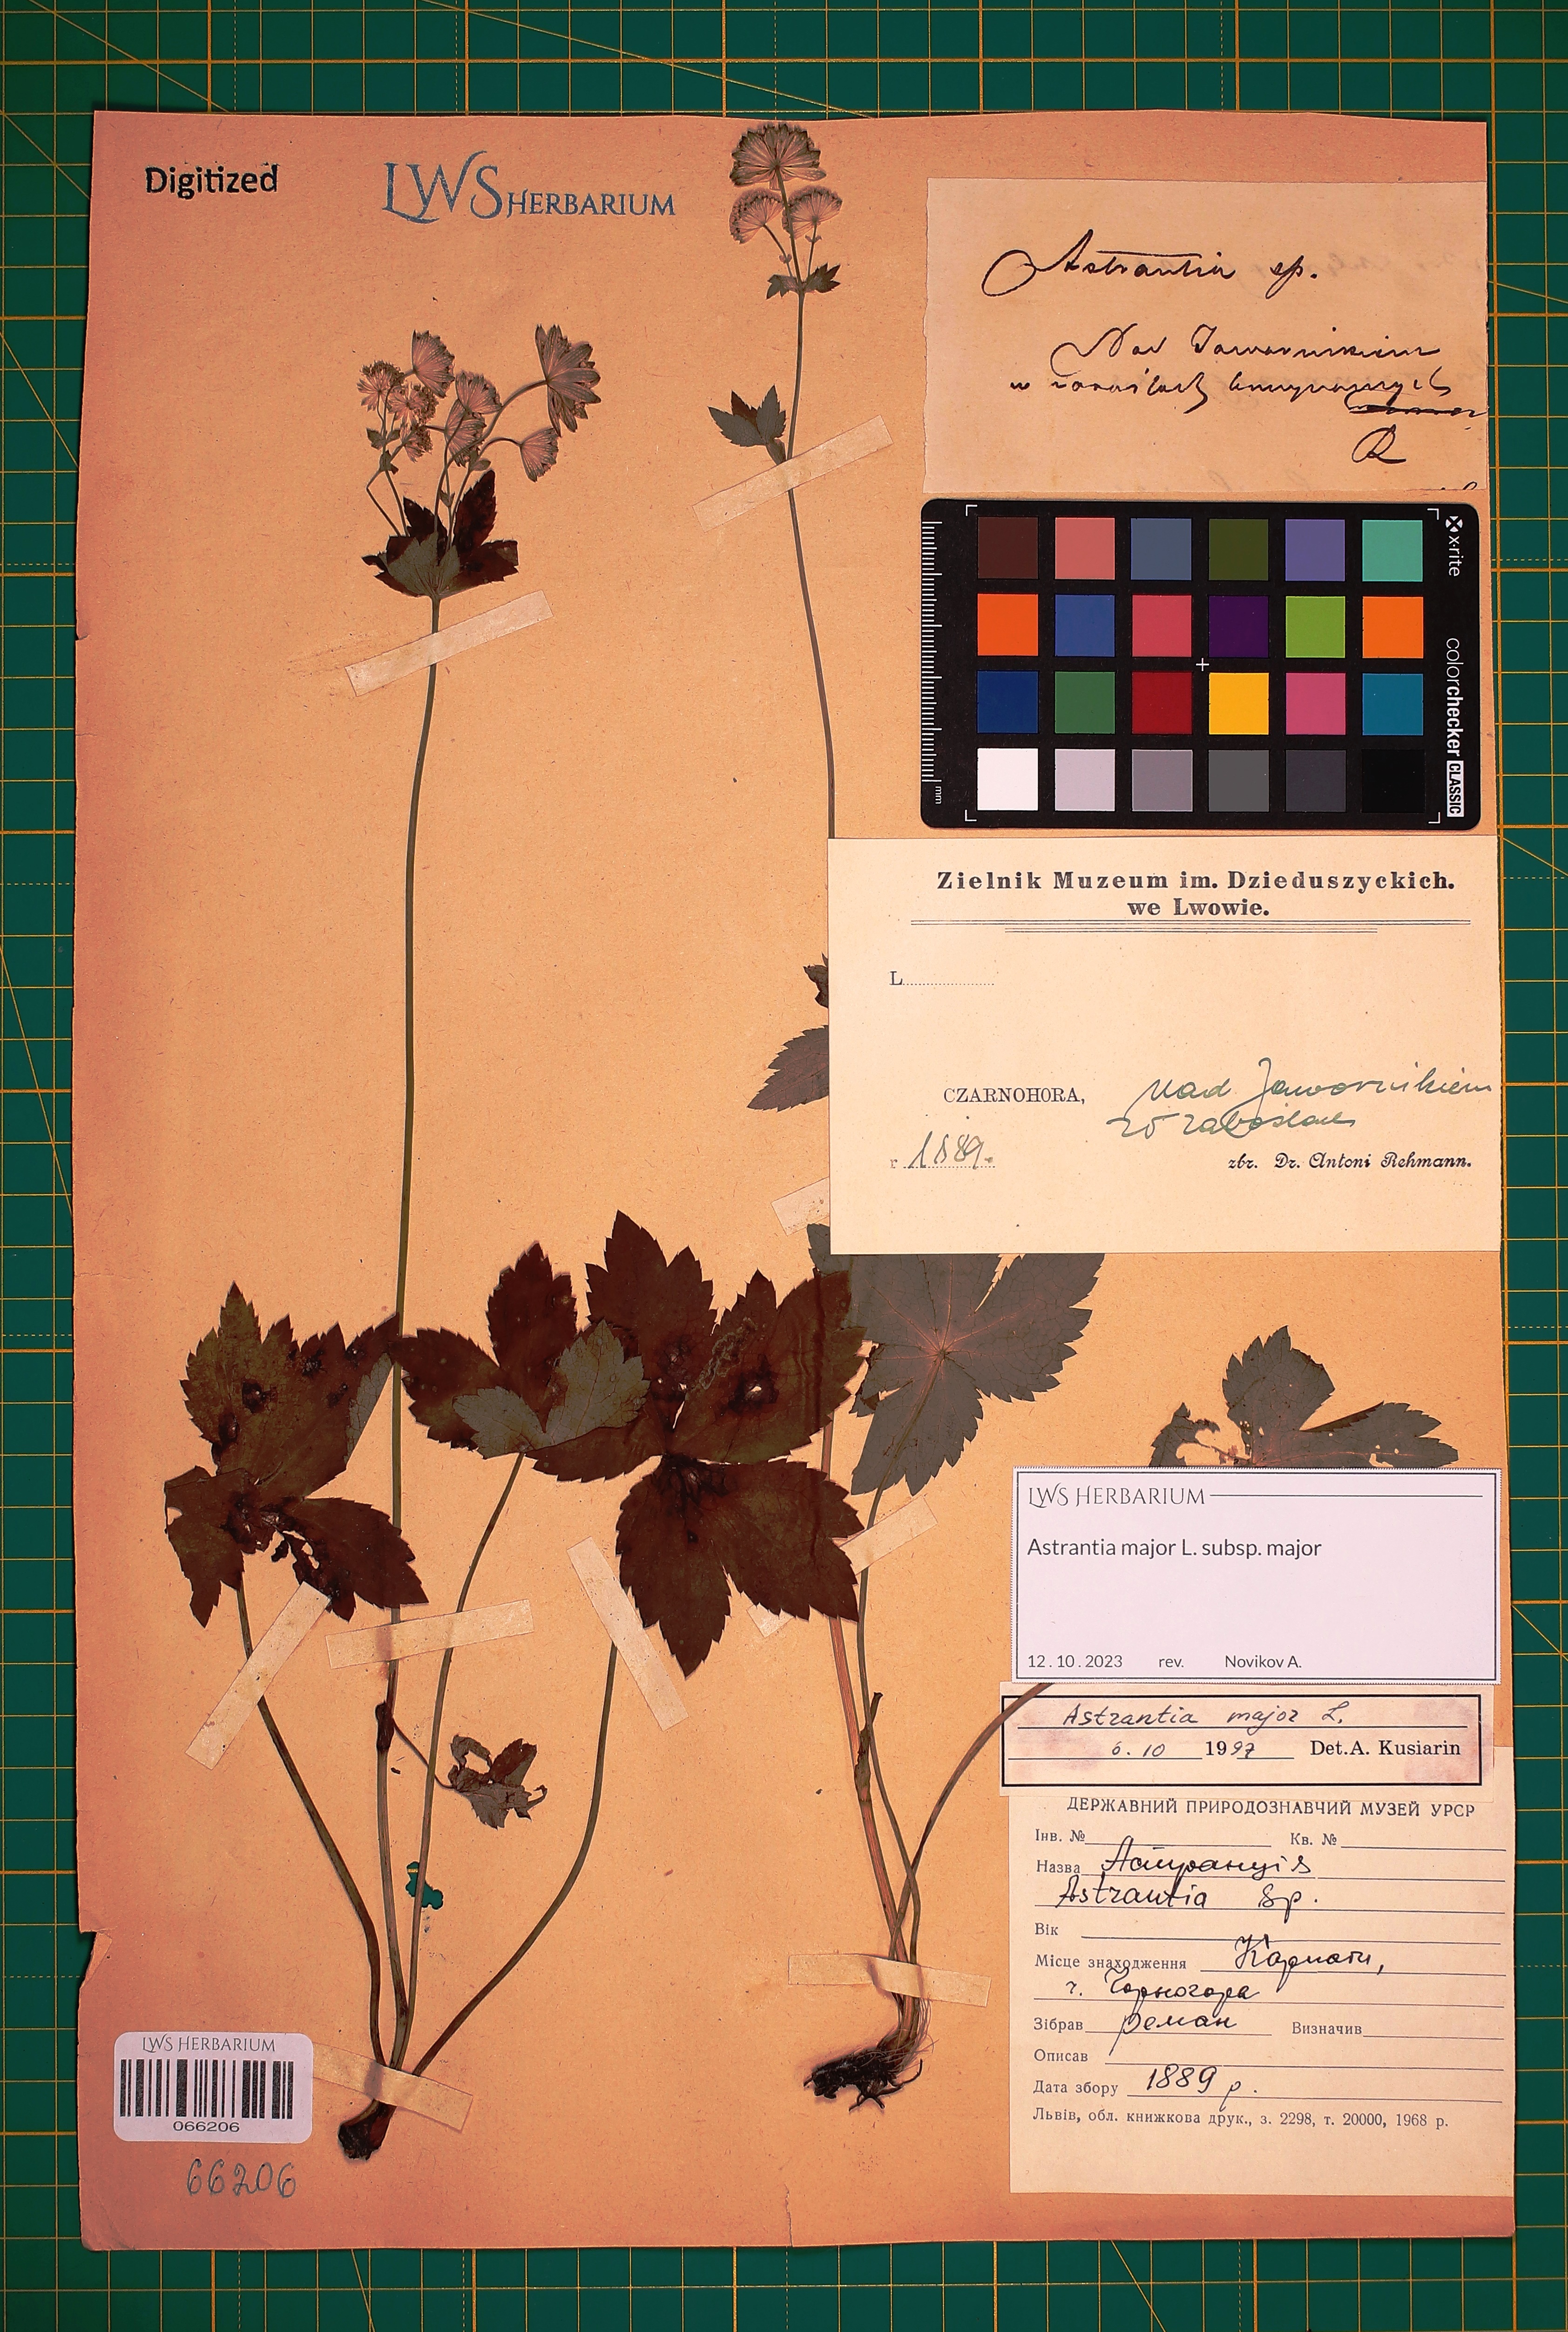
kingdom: Plantae
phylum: Tracheophyta
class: Magnoliopsida
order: Apiales
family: Apiaceae
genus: Astrantia
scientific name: Astrantia major
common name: Greater masterwort
